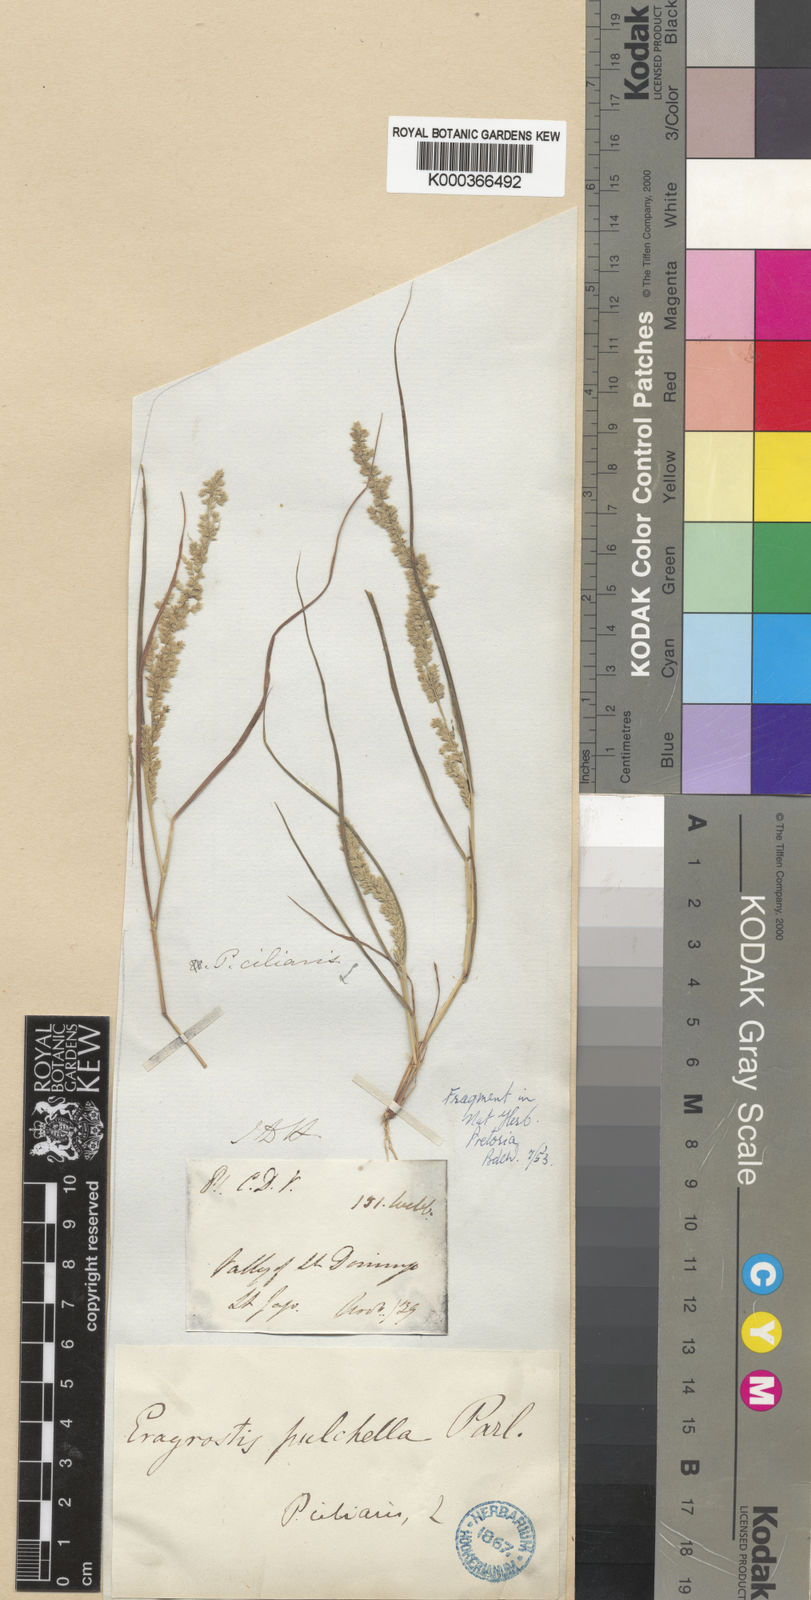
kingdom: Plantae
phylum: Tracheophyta
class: Liliopsida
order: Poales
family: Poaceae
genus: Eragrostis
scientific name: Eragrostis ciliaris
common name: Gophertail lovegrass
